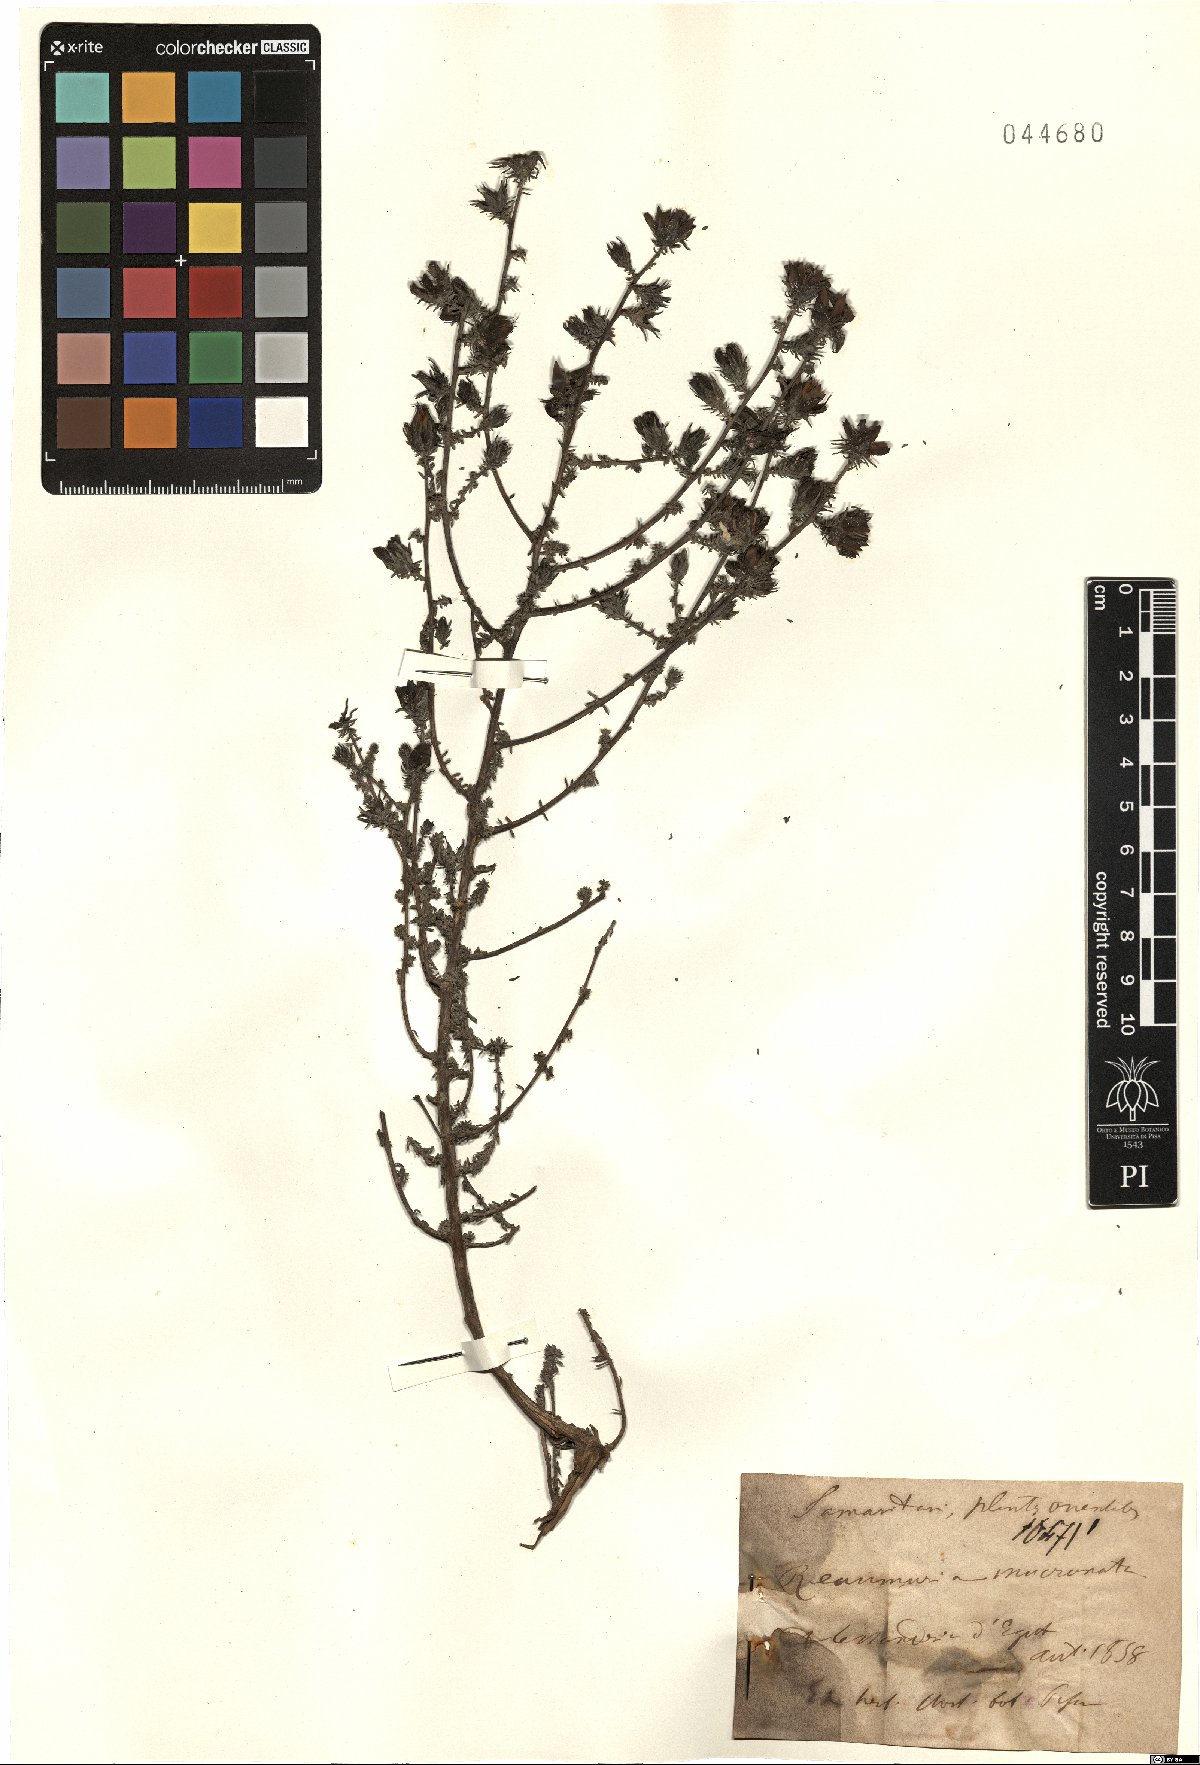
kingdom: Plantae
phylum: Tracheophyta
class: Magnoliopsida
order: Caryophyllales
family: Tamaricaceae
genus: Reaumuria
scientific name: Reaumuria vermiculata
